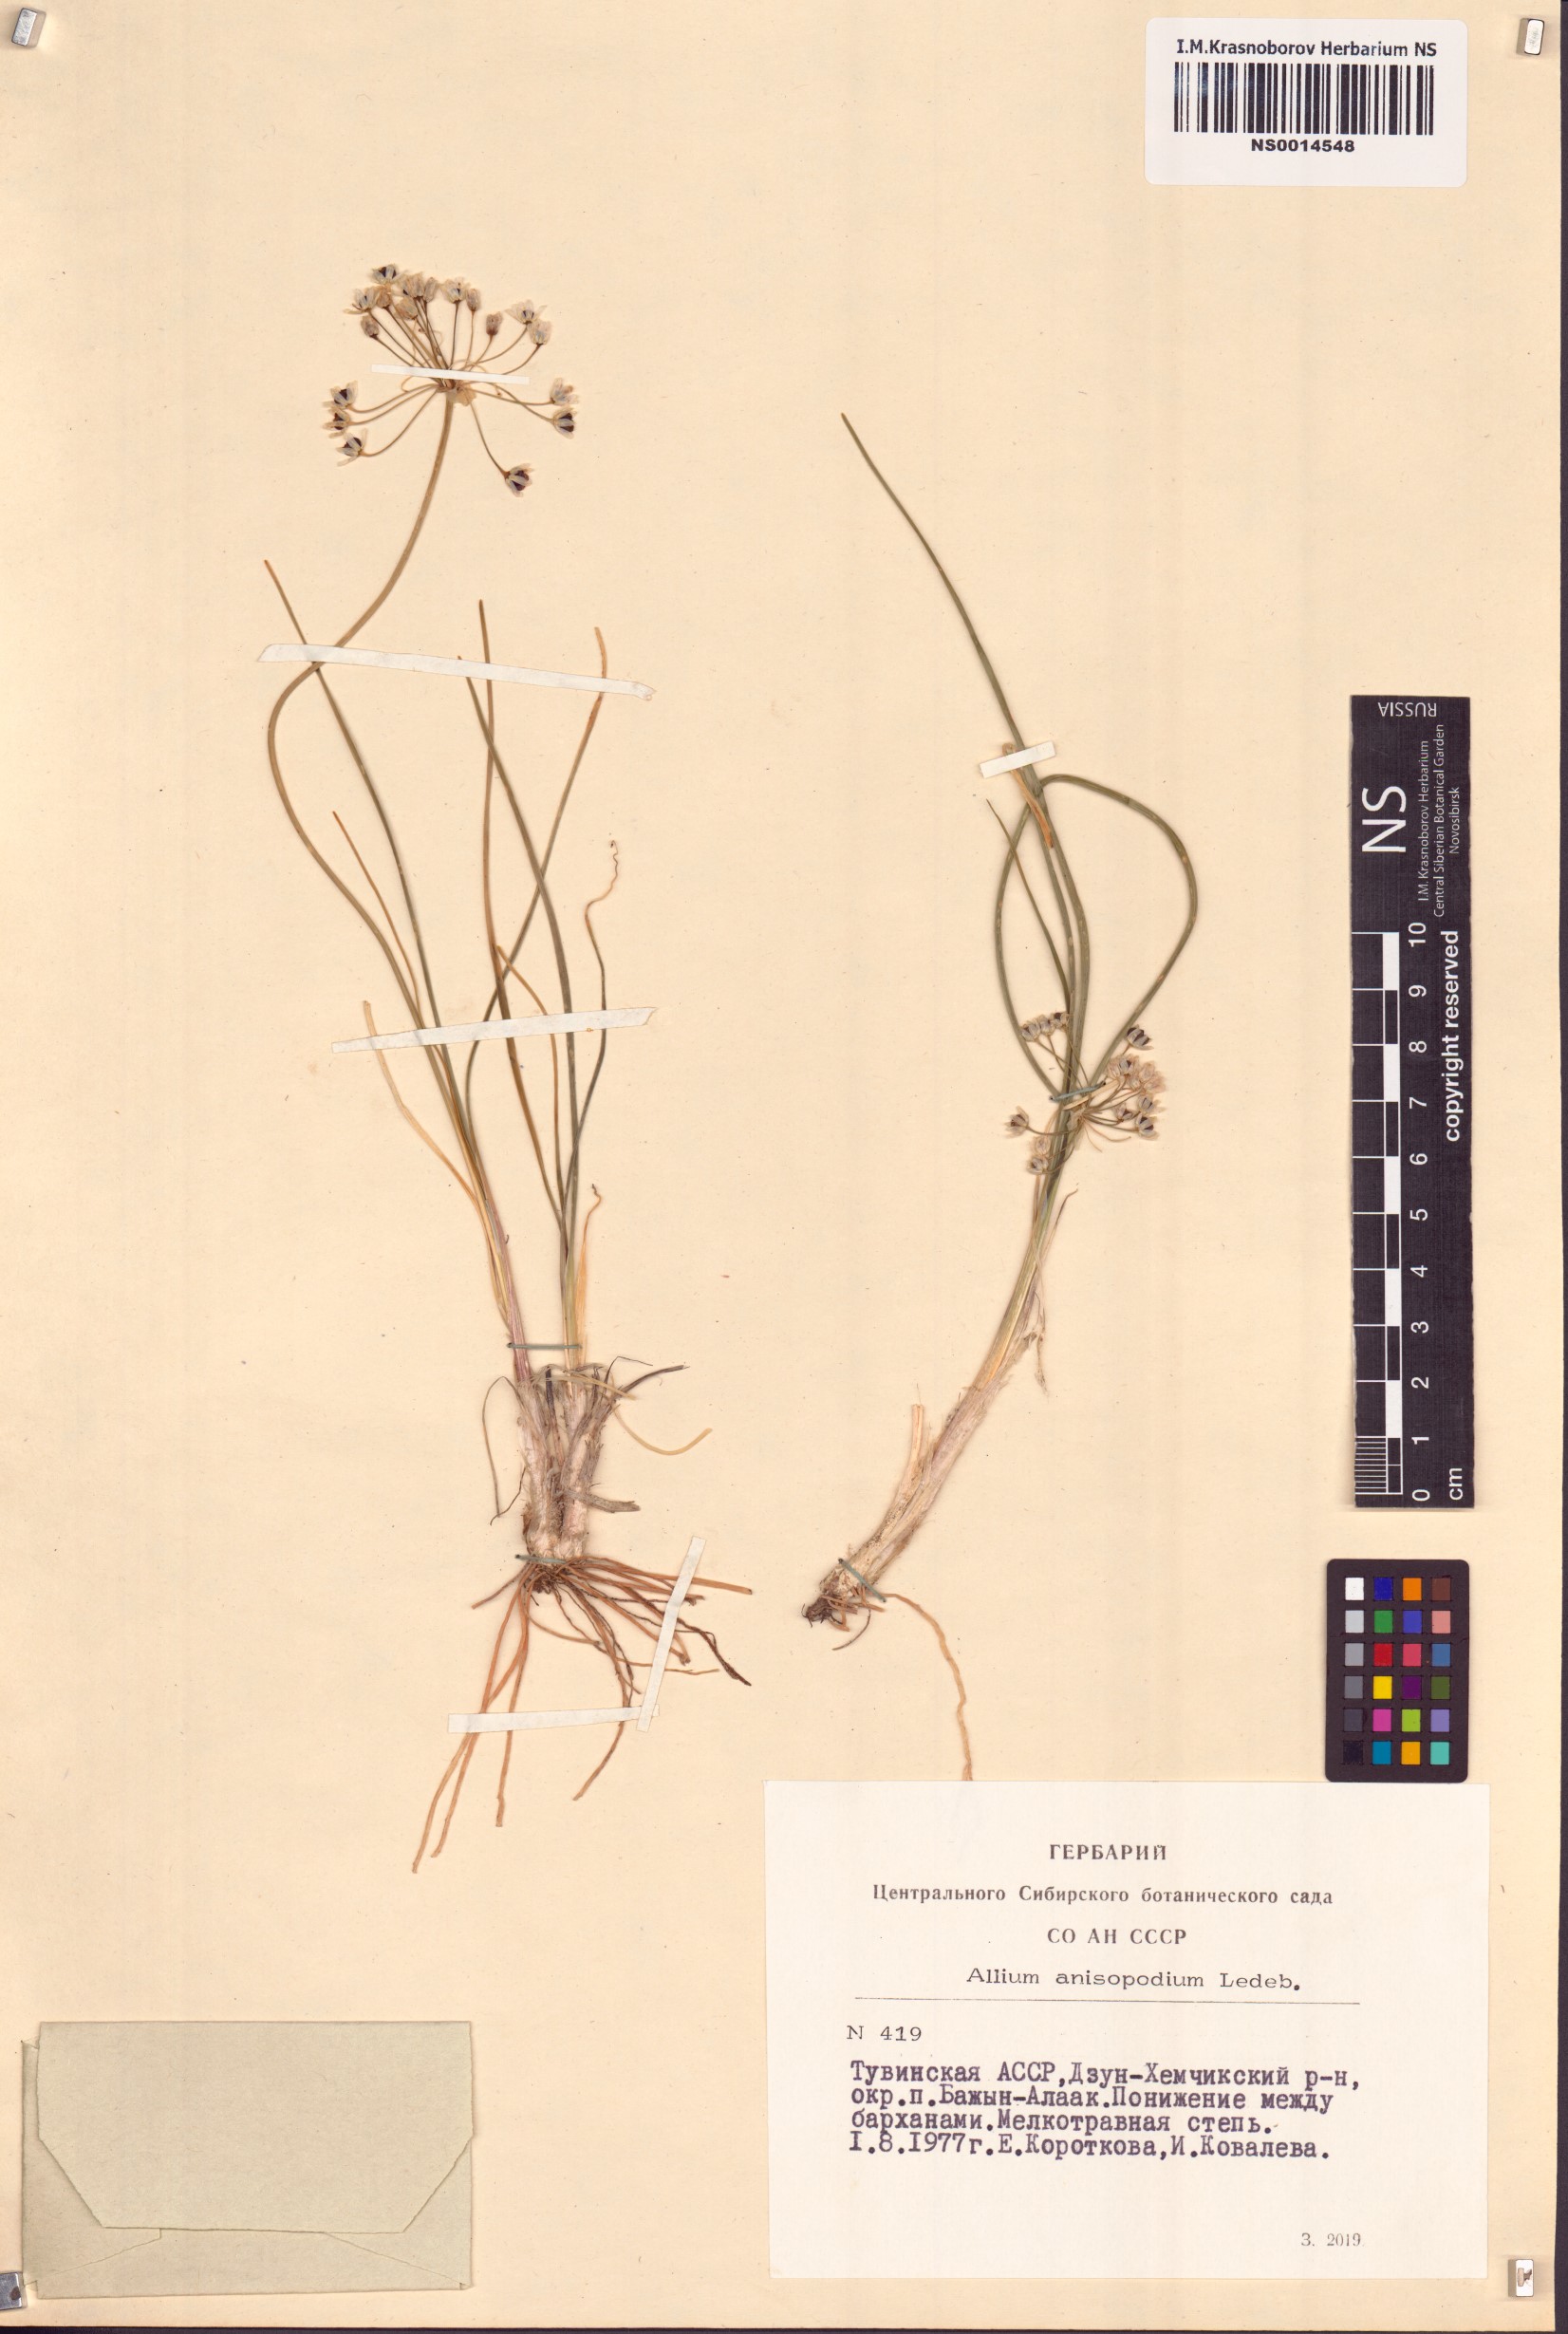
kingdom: Plantae
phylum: Tracheophyta
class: Liliopsida
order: Asparagales
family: Amaryllidaceae
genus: Allium
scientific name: Allium anisopodium
